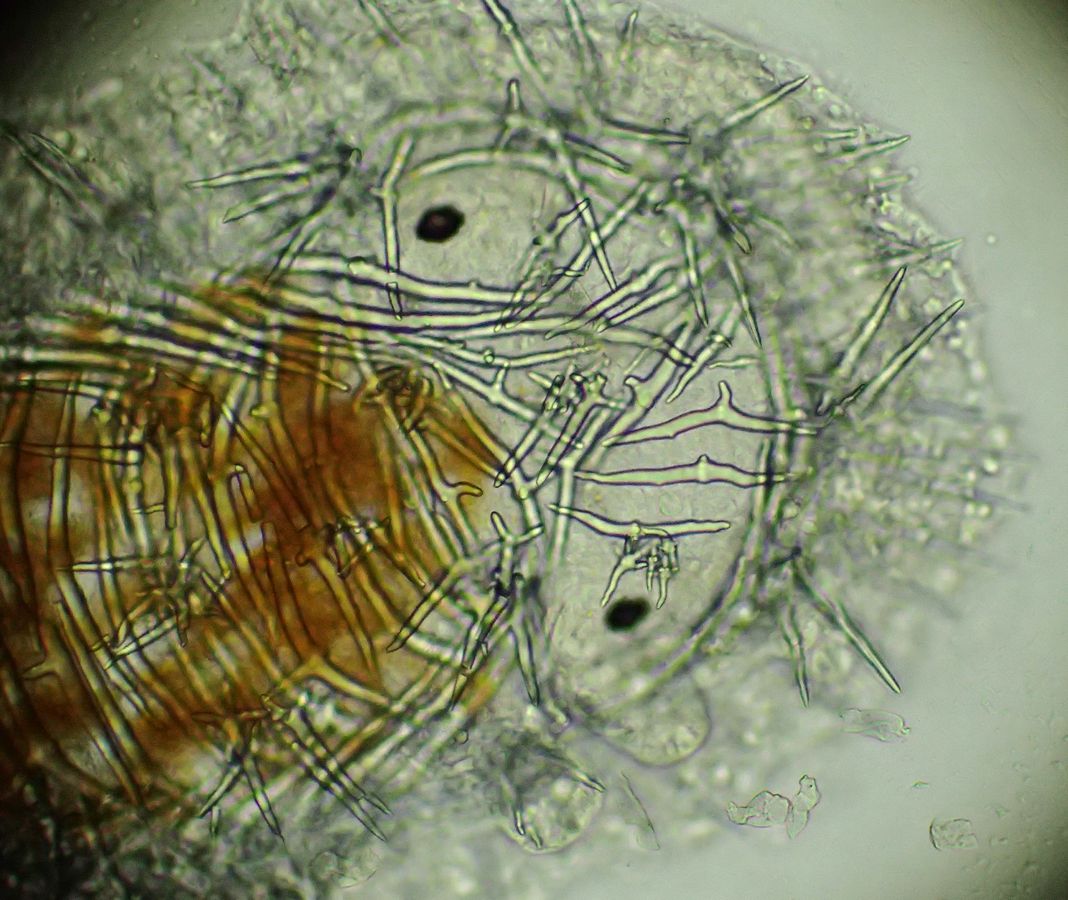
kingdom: Animalia
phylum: Mollusca
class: Gastropoda
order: Nudibranchia
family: Onchidorididae
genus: Onchidoris
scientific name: Onchidoris muricata
